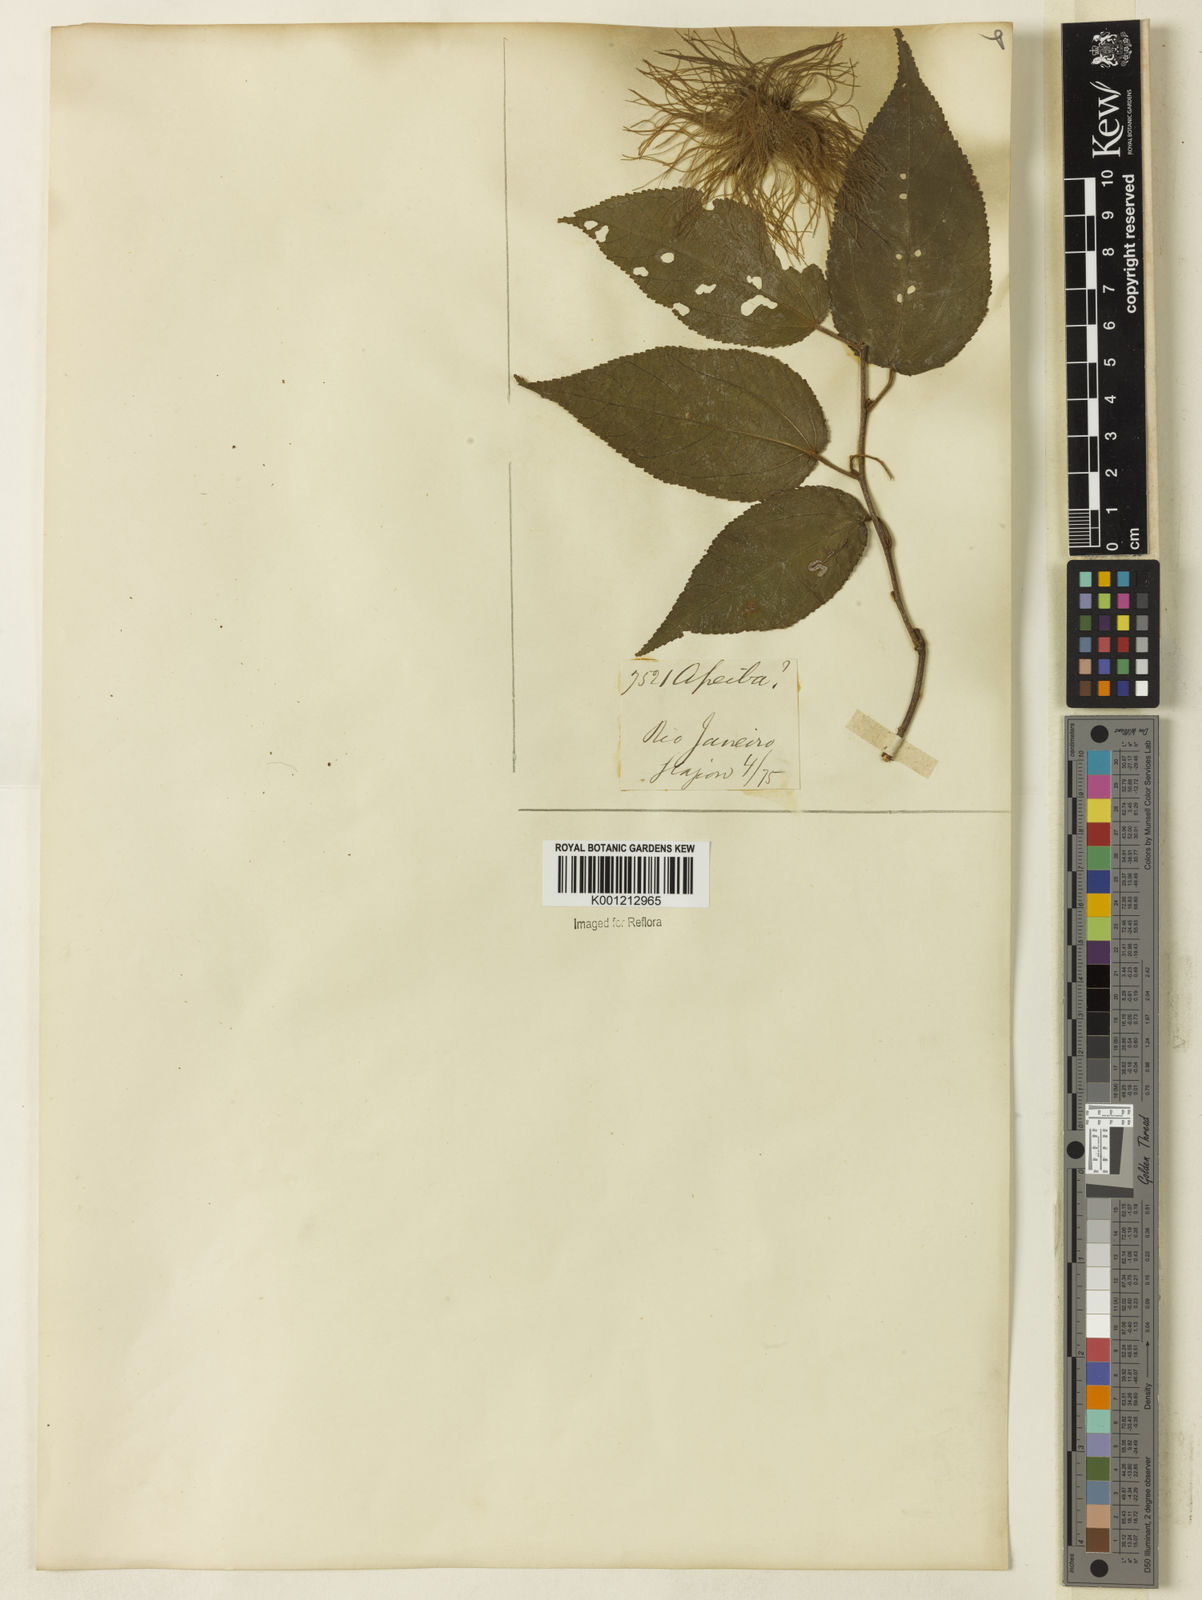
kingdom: Plantae
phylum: Tracheophyta
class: Magnoliopsida
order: Malvales
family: Malvaceae
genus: Guazuma
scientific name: Guazuma crinita
